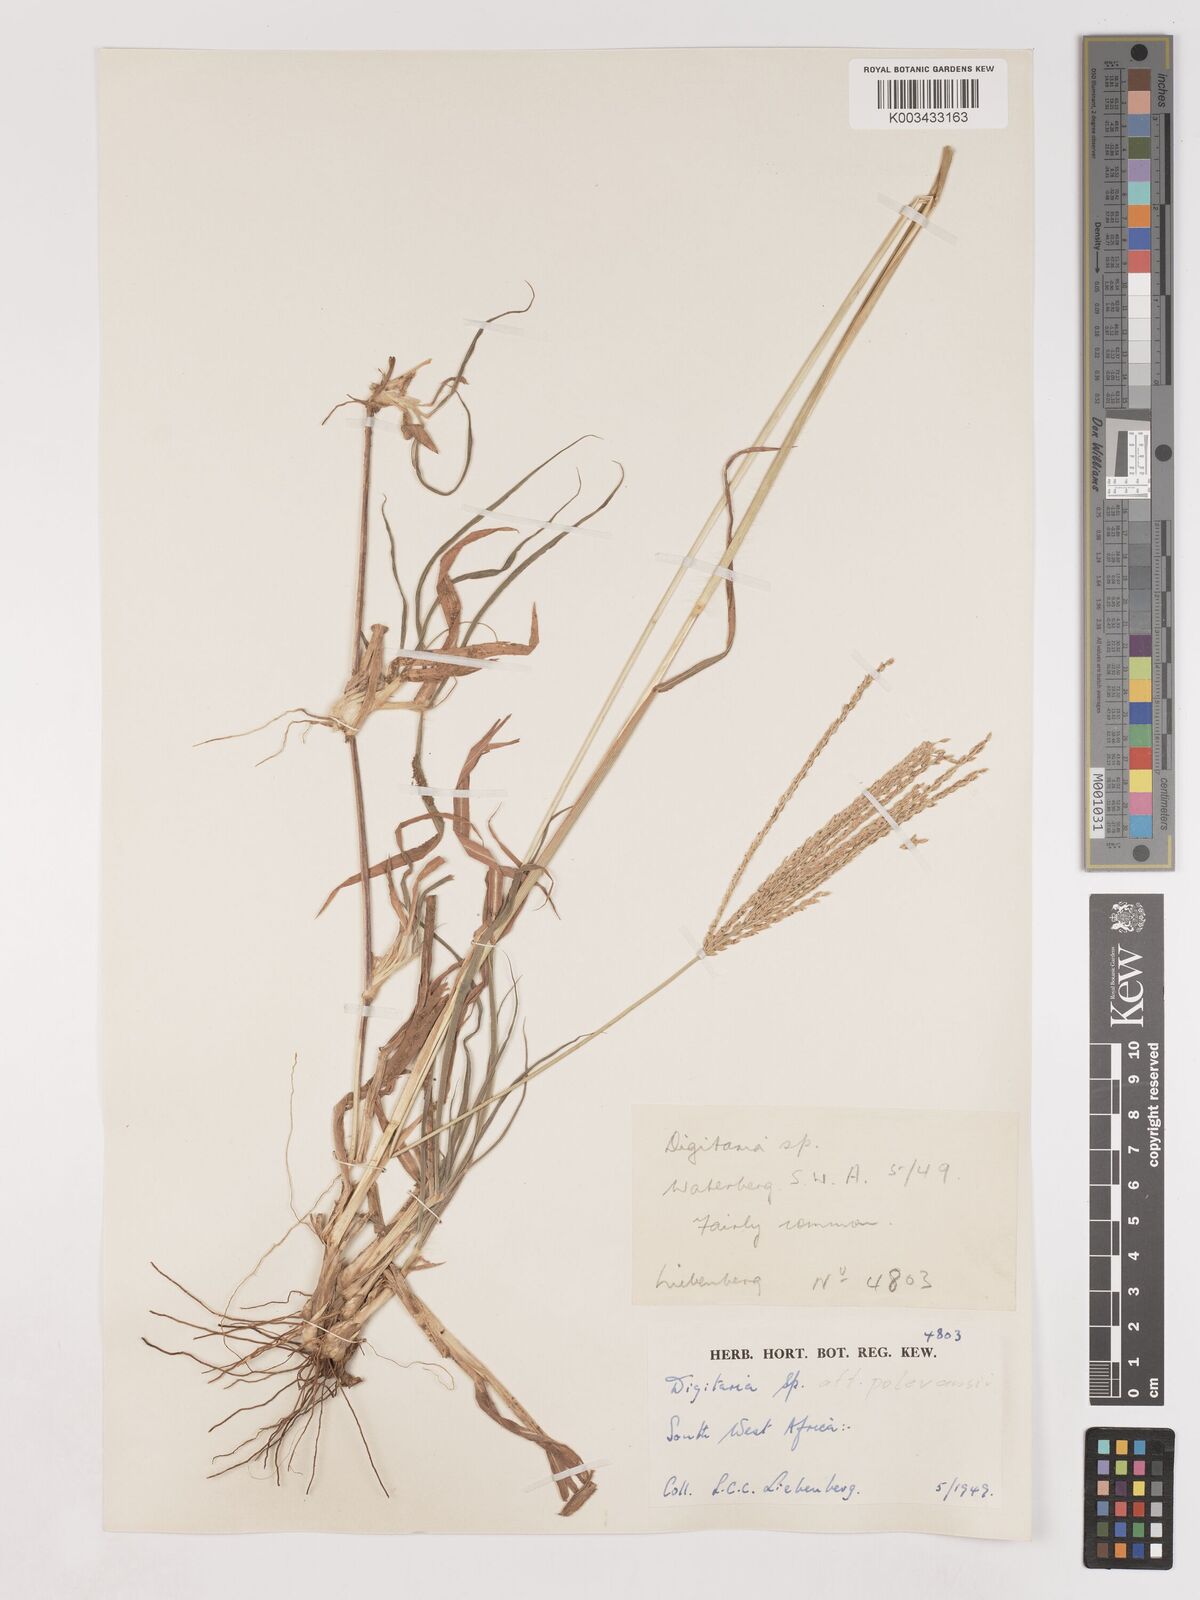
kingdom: Plantae
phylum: Tracheophyta
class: Liliopsida
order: Poales
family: Poaceae
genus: Digitaria
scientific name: Digitaria milanjiana
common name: Madagascar crabgrass
